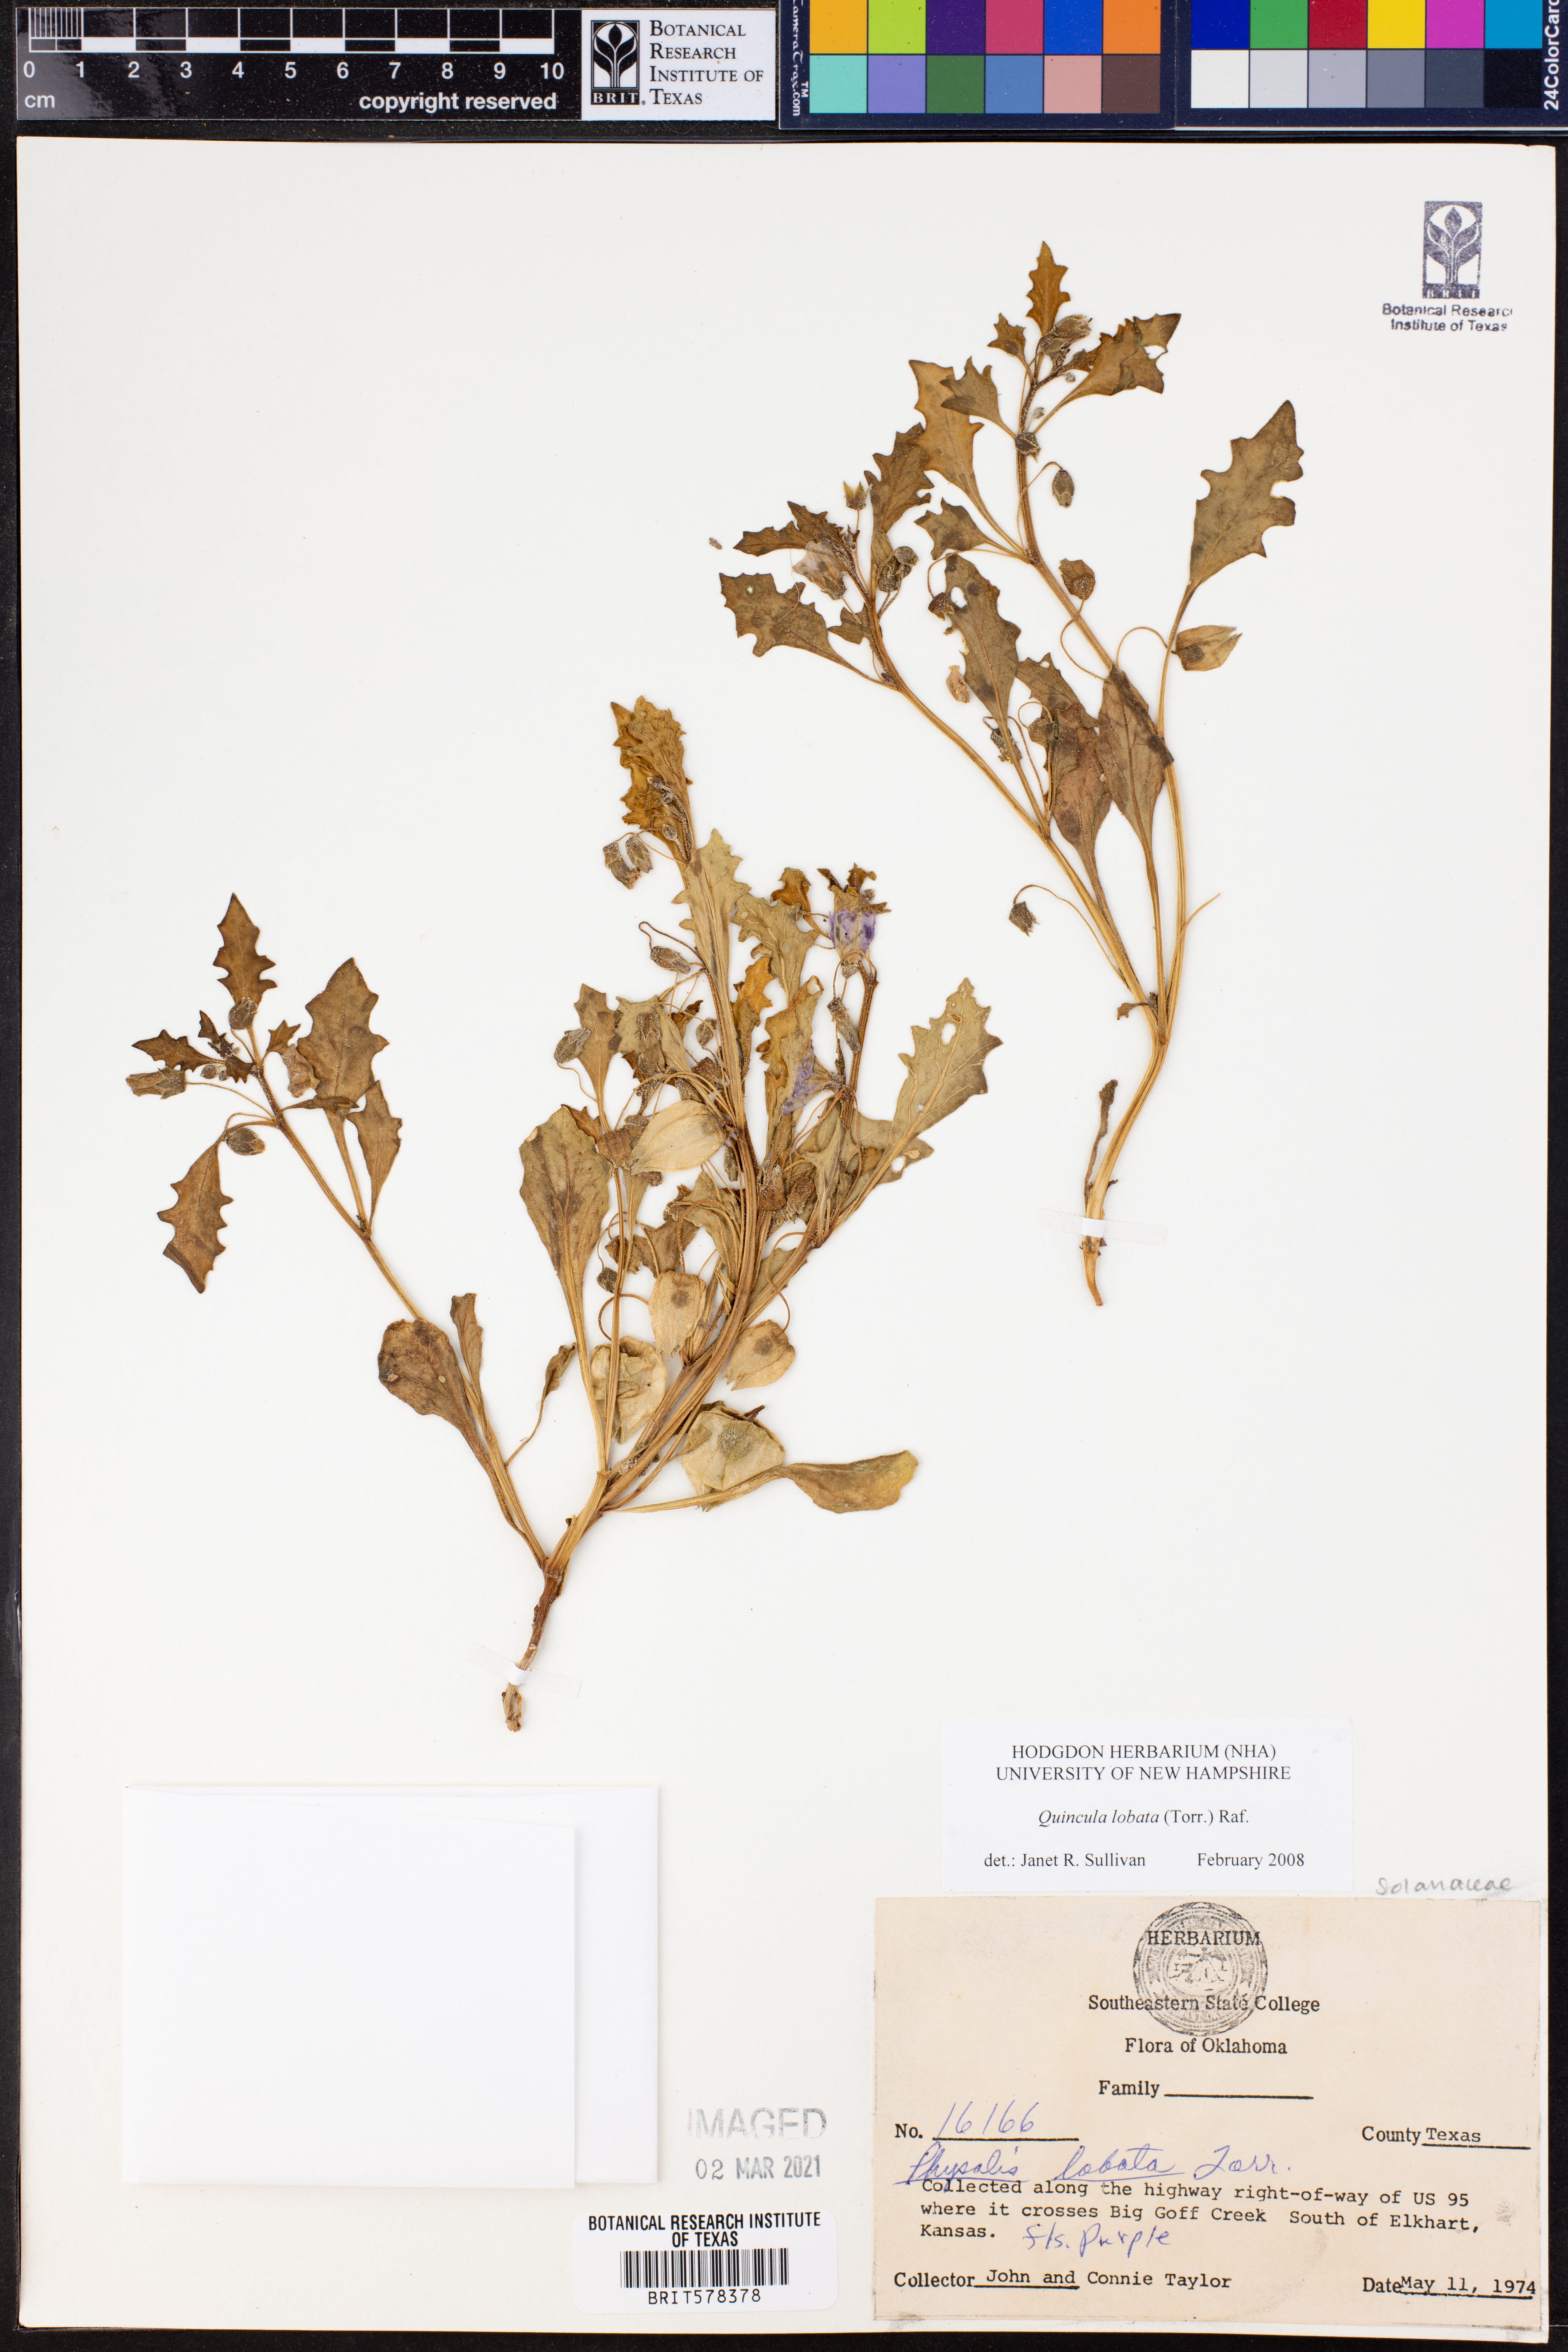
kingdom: Plantae
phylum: Tracheophyta
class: Magnoliopsida
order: Solanales
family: Solanaceae
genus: Quincula
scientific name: Quincula lobata
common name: Purple-ground-cherry
